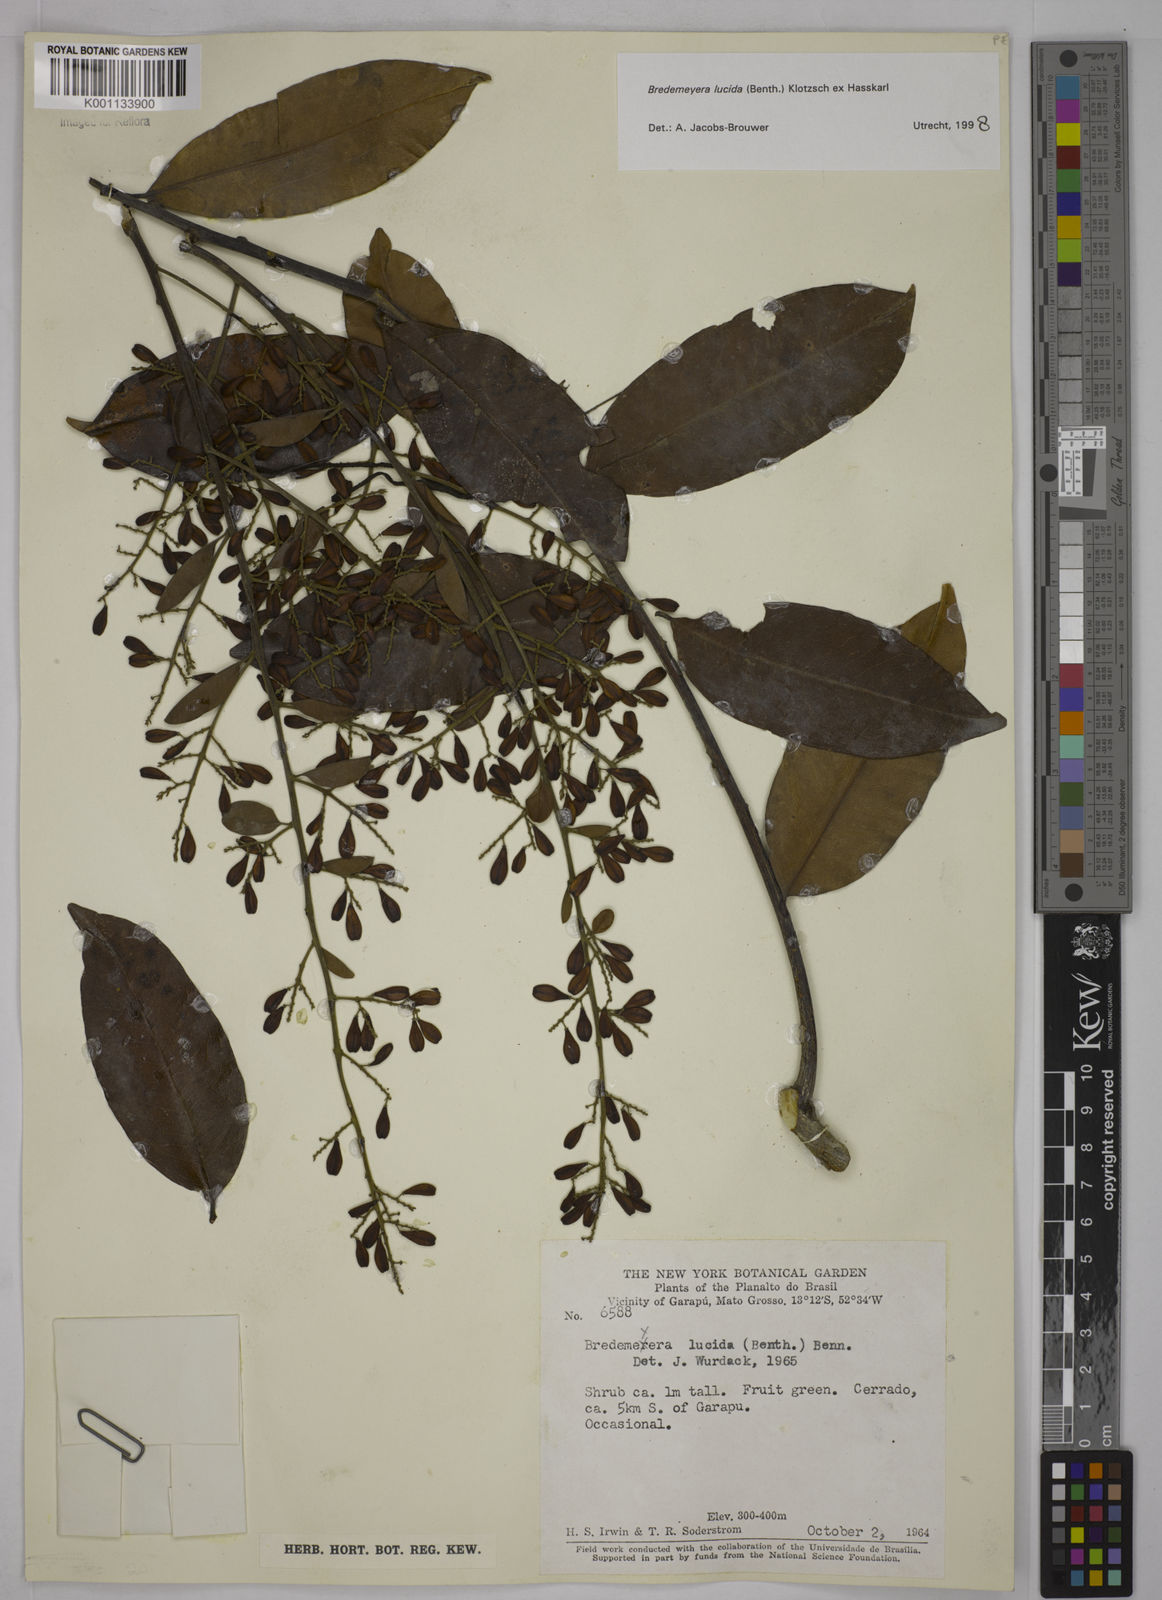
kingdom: Plantae
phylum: Tracheophyta
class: Magnoliopsida
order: Fabales
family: Polygalaceae
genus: Bredemeyera
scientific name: Bredemeyera lucida
